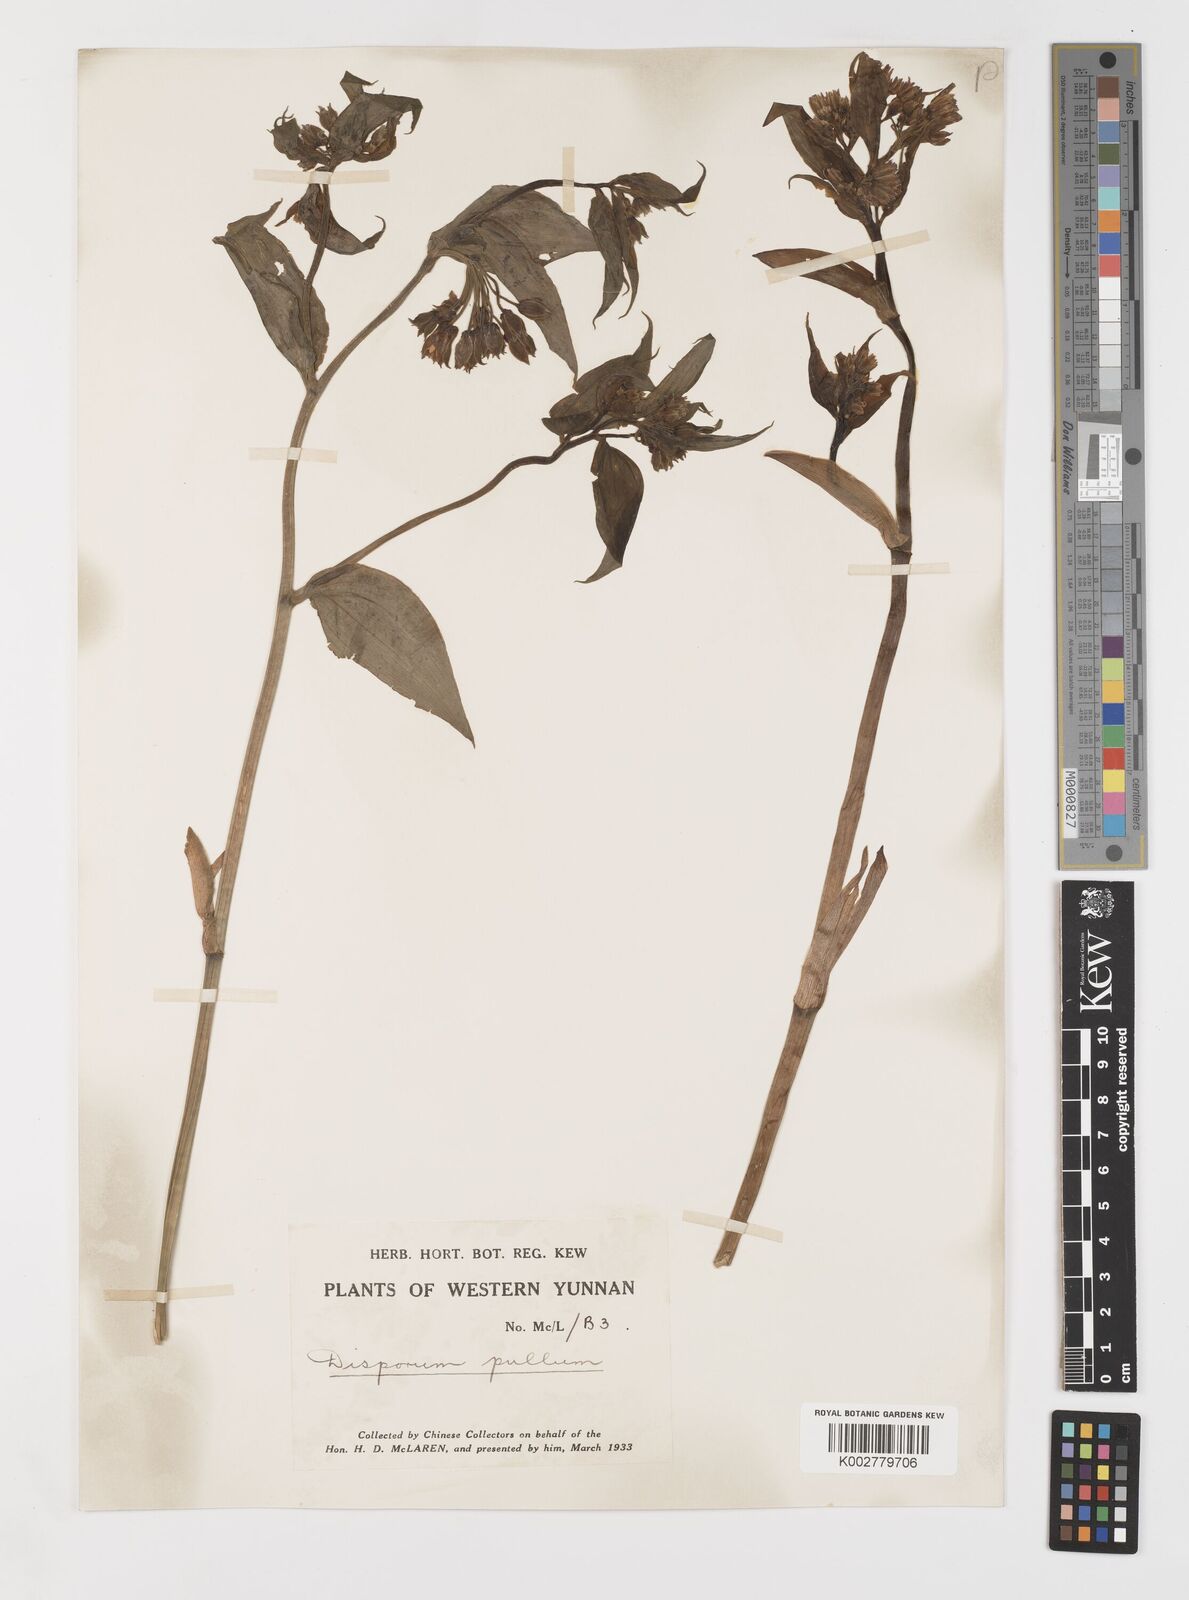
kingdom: Plantae
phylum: Tracheophyta
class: Liliopsida
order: Liliales
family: Colchicaceae
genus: Disporum
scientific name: Disporum cantoniense
